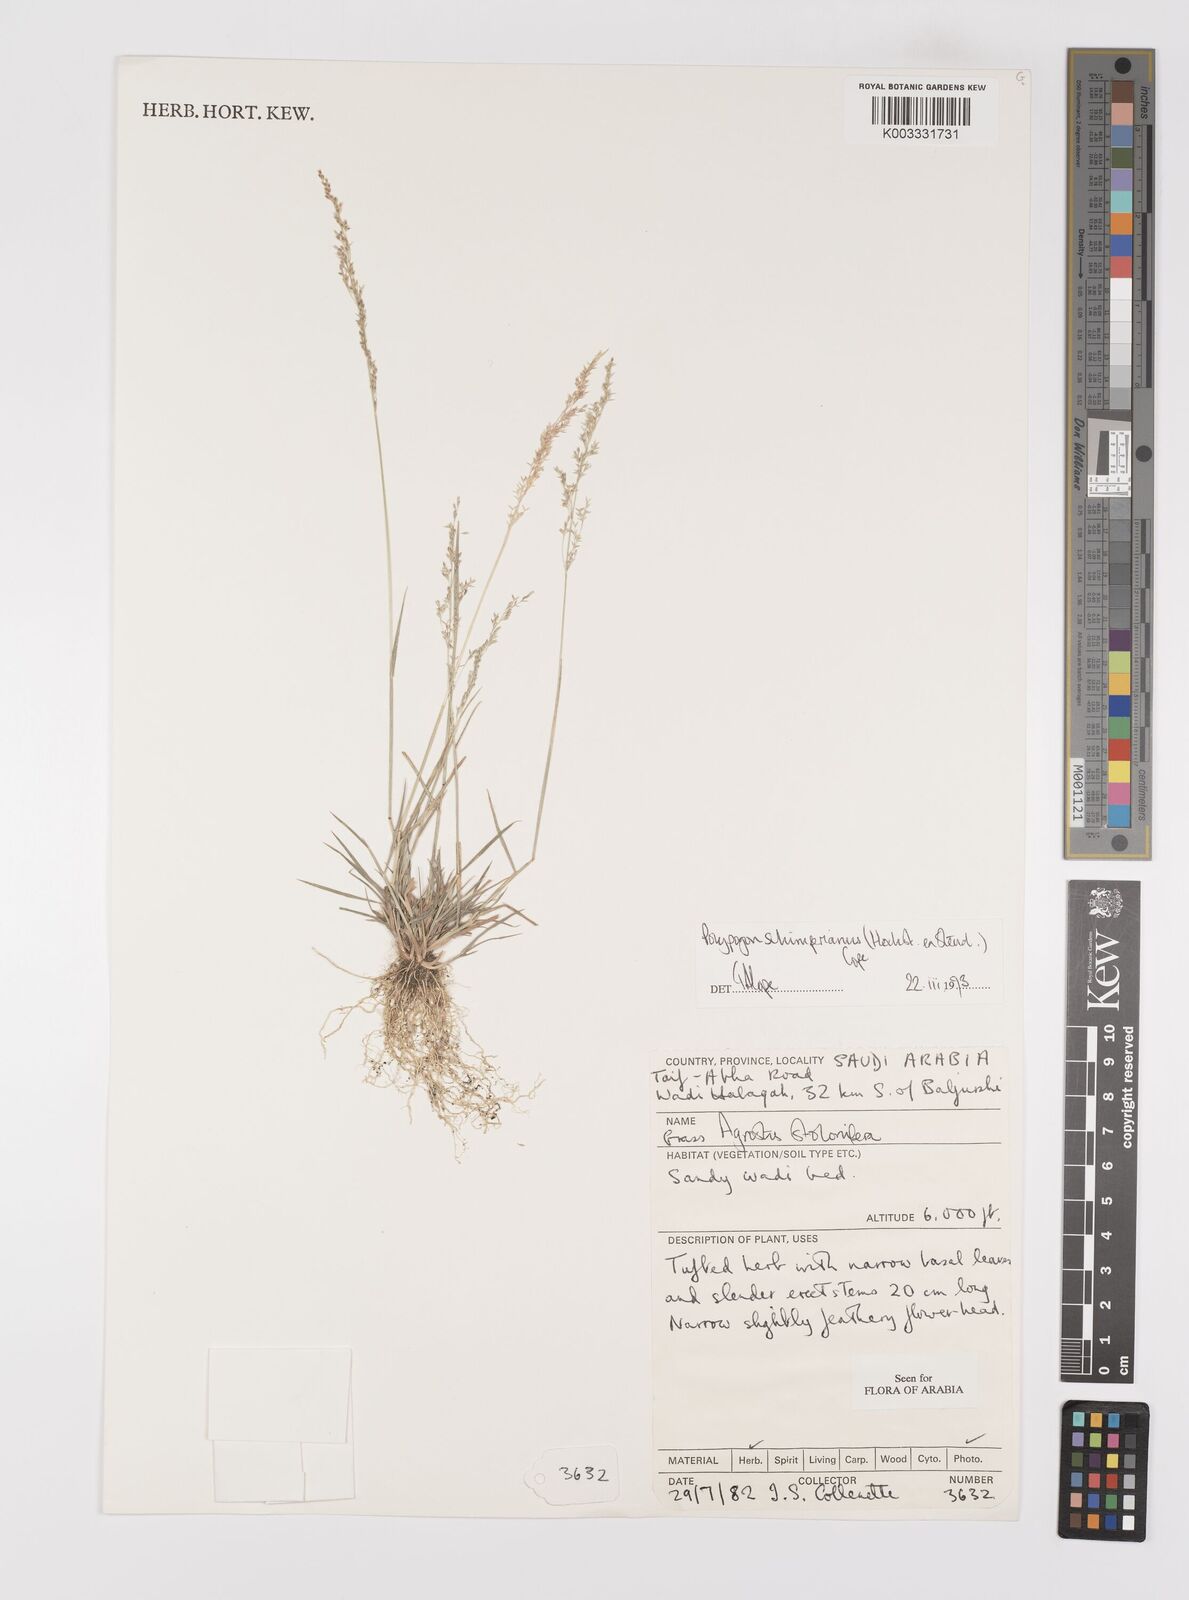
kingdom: Plantae
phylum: Tracheophyta
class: Liliopsida
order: Poales
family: Poaceae
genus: Polypogon
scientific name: Polypogon schimperianus
